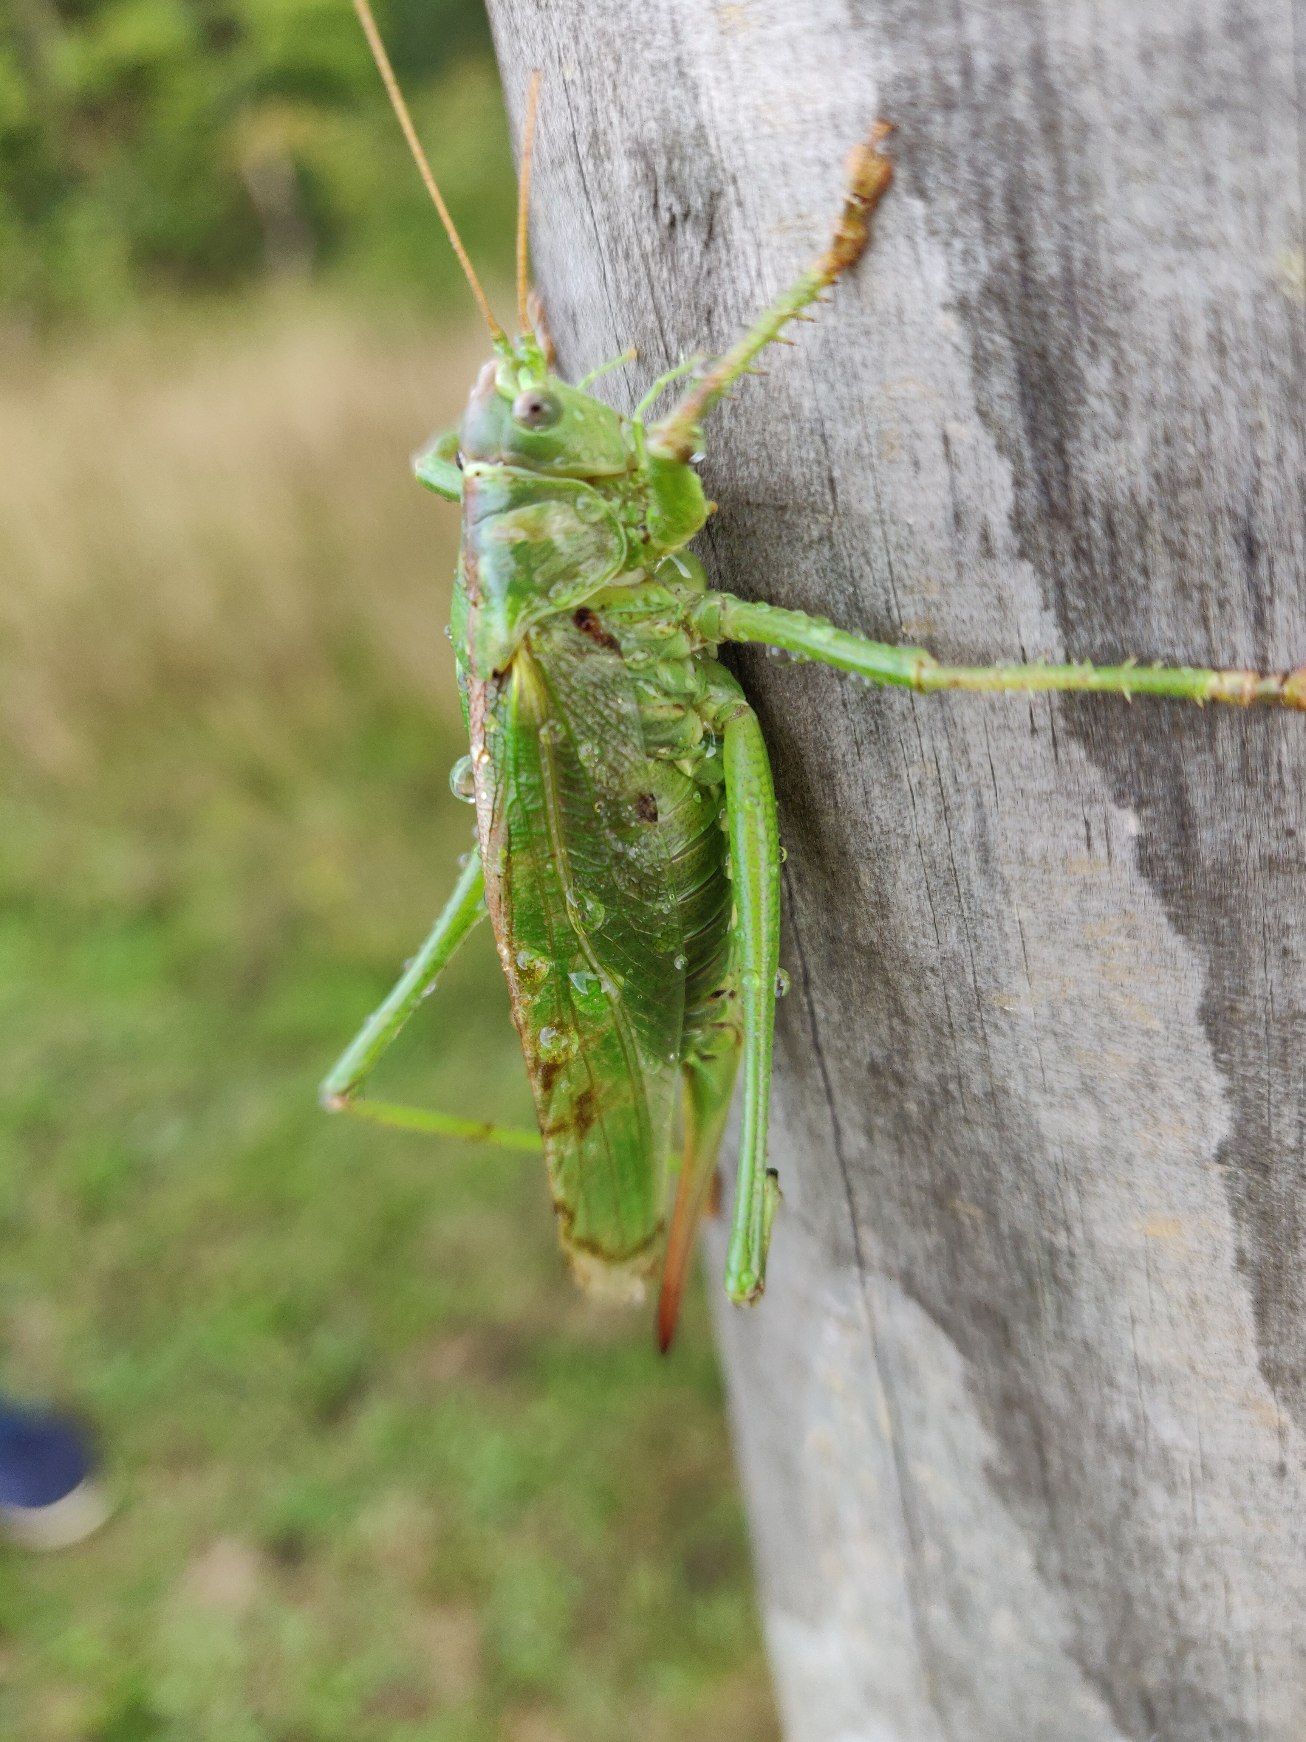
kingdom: Animalia
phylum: Arthropoda
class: Insecta
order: Orthoptera
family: Tettigoniidae
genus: Tettigonia
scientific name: Tettigonia viridissima
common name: Stor grøn løvgræshoppe
